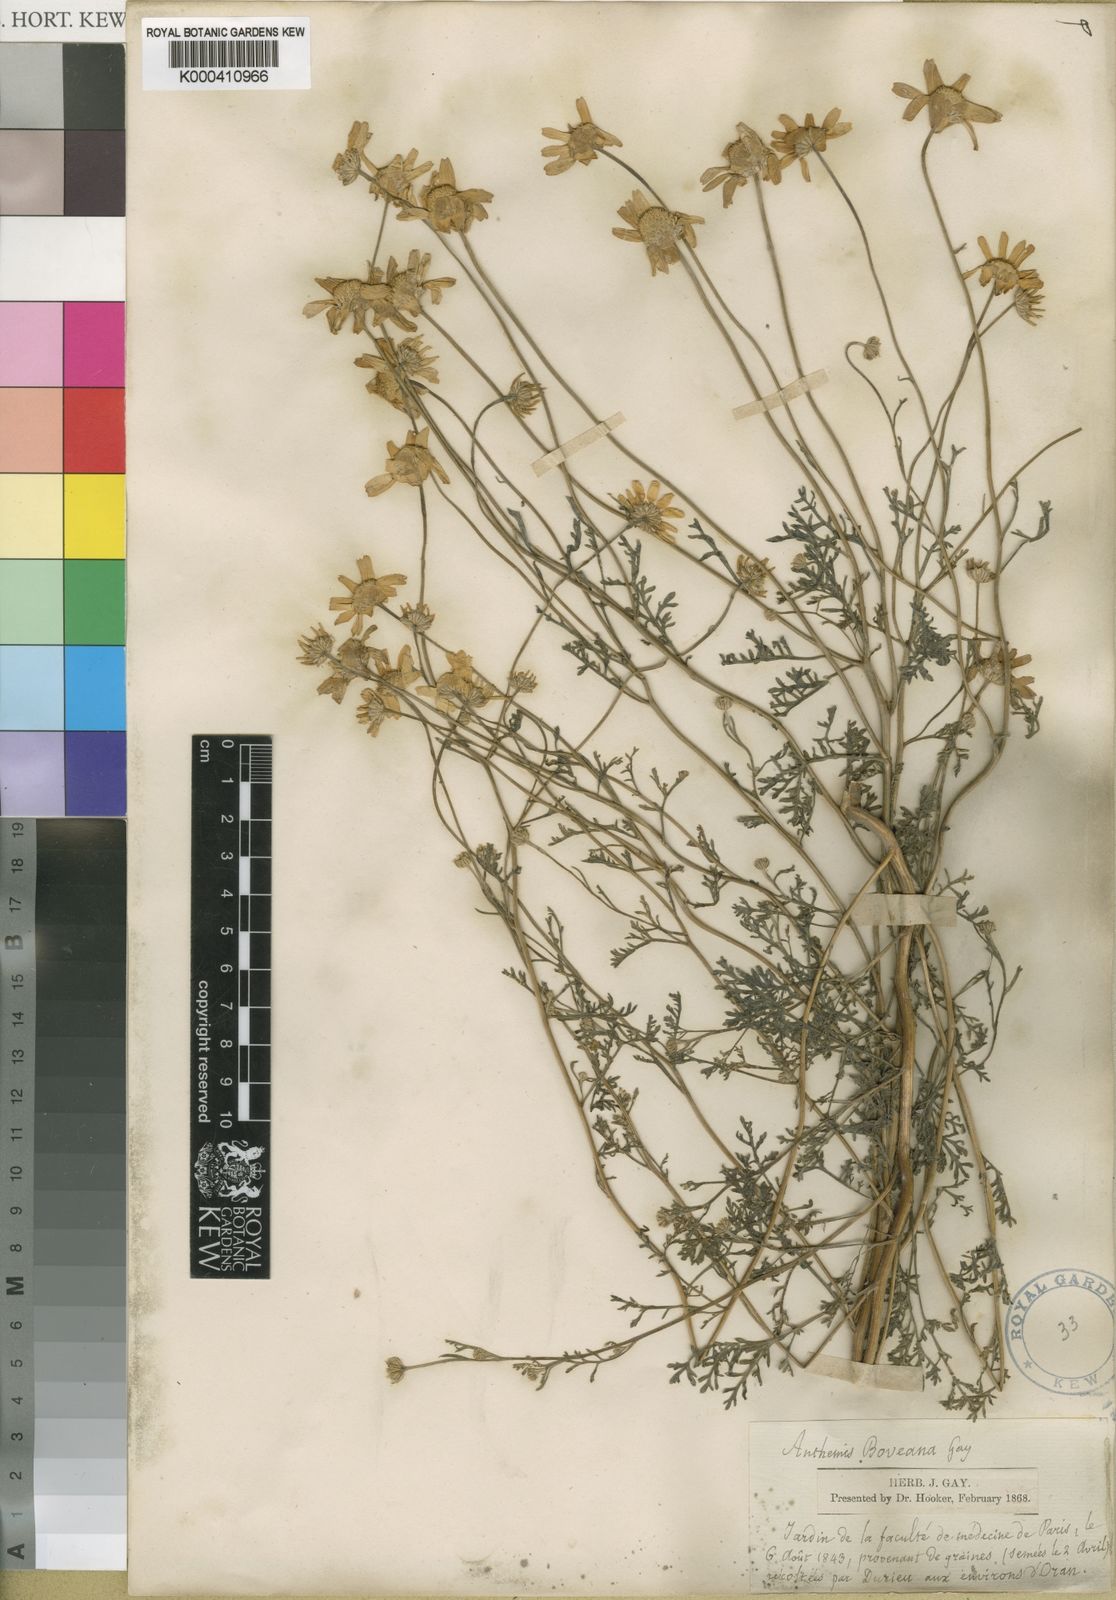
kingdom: Plantae
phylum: Tracheophyta
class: Magnoliopsida
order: Asterales
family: Asteraceae
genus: Anthemis
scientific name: Anthemis boveana
